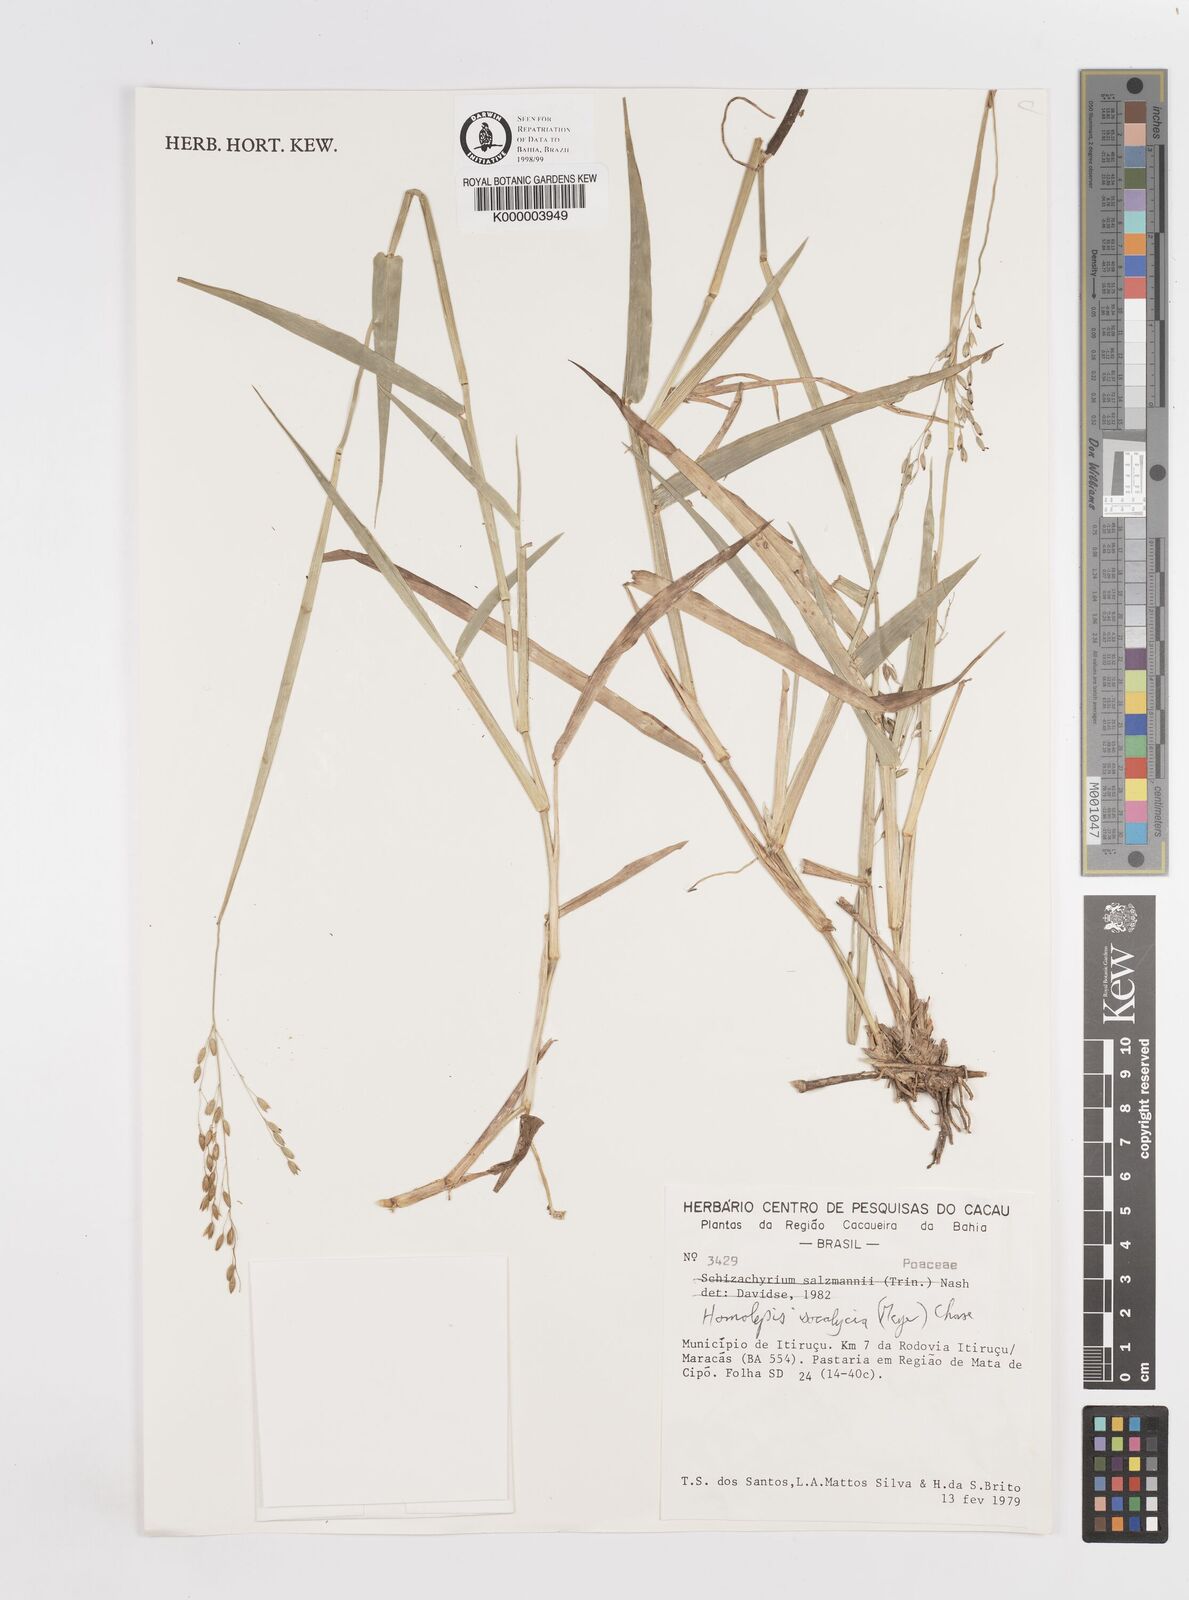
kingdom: Plantae
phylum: Tracheophyta
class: Liliopsida
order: Poales
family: Poaceae
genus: Homolepis
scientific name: Homolepis
